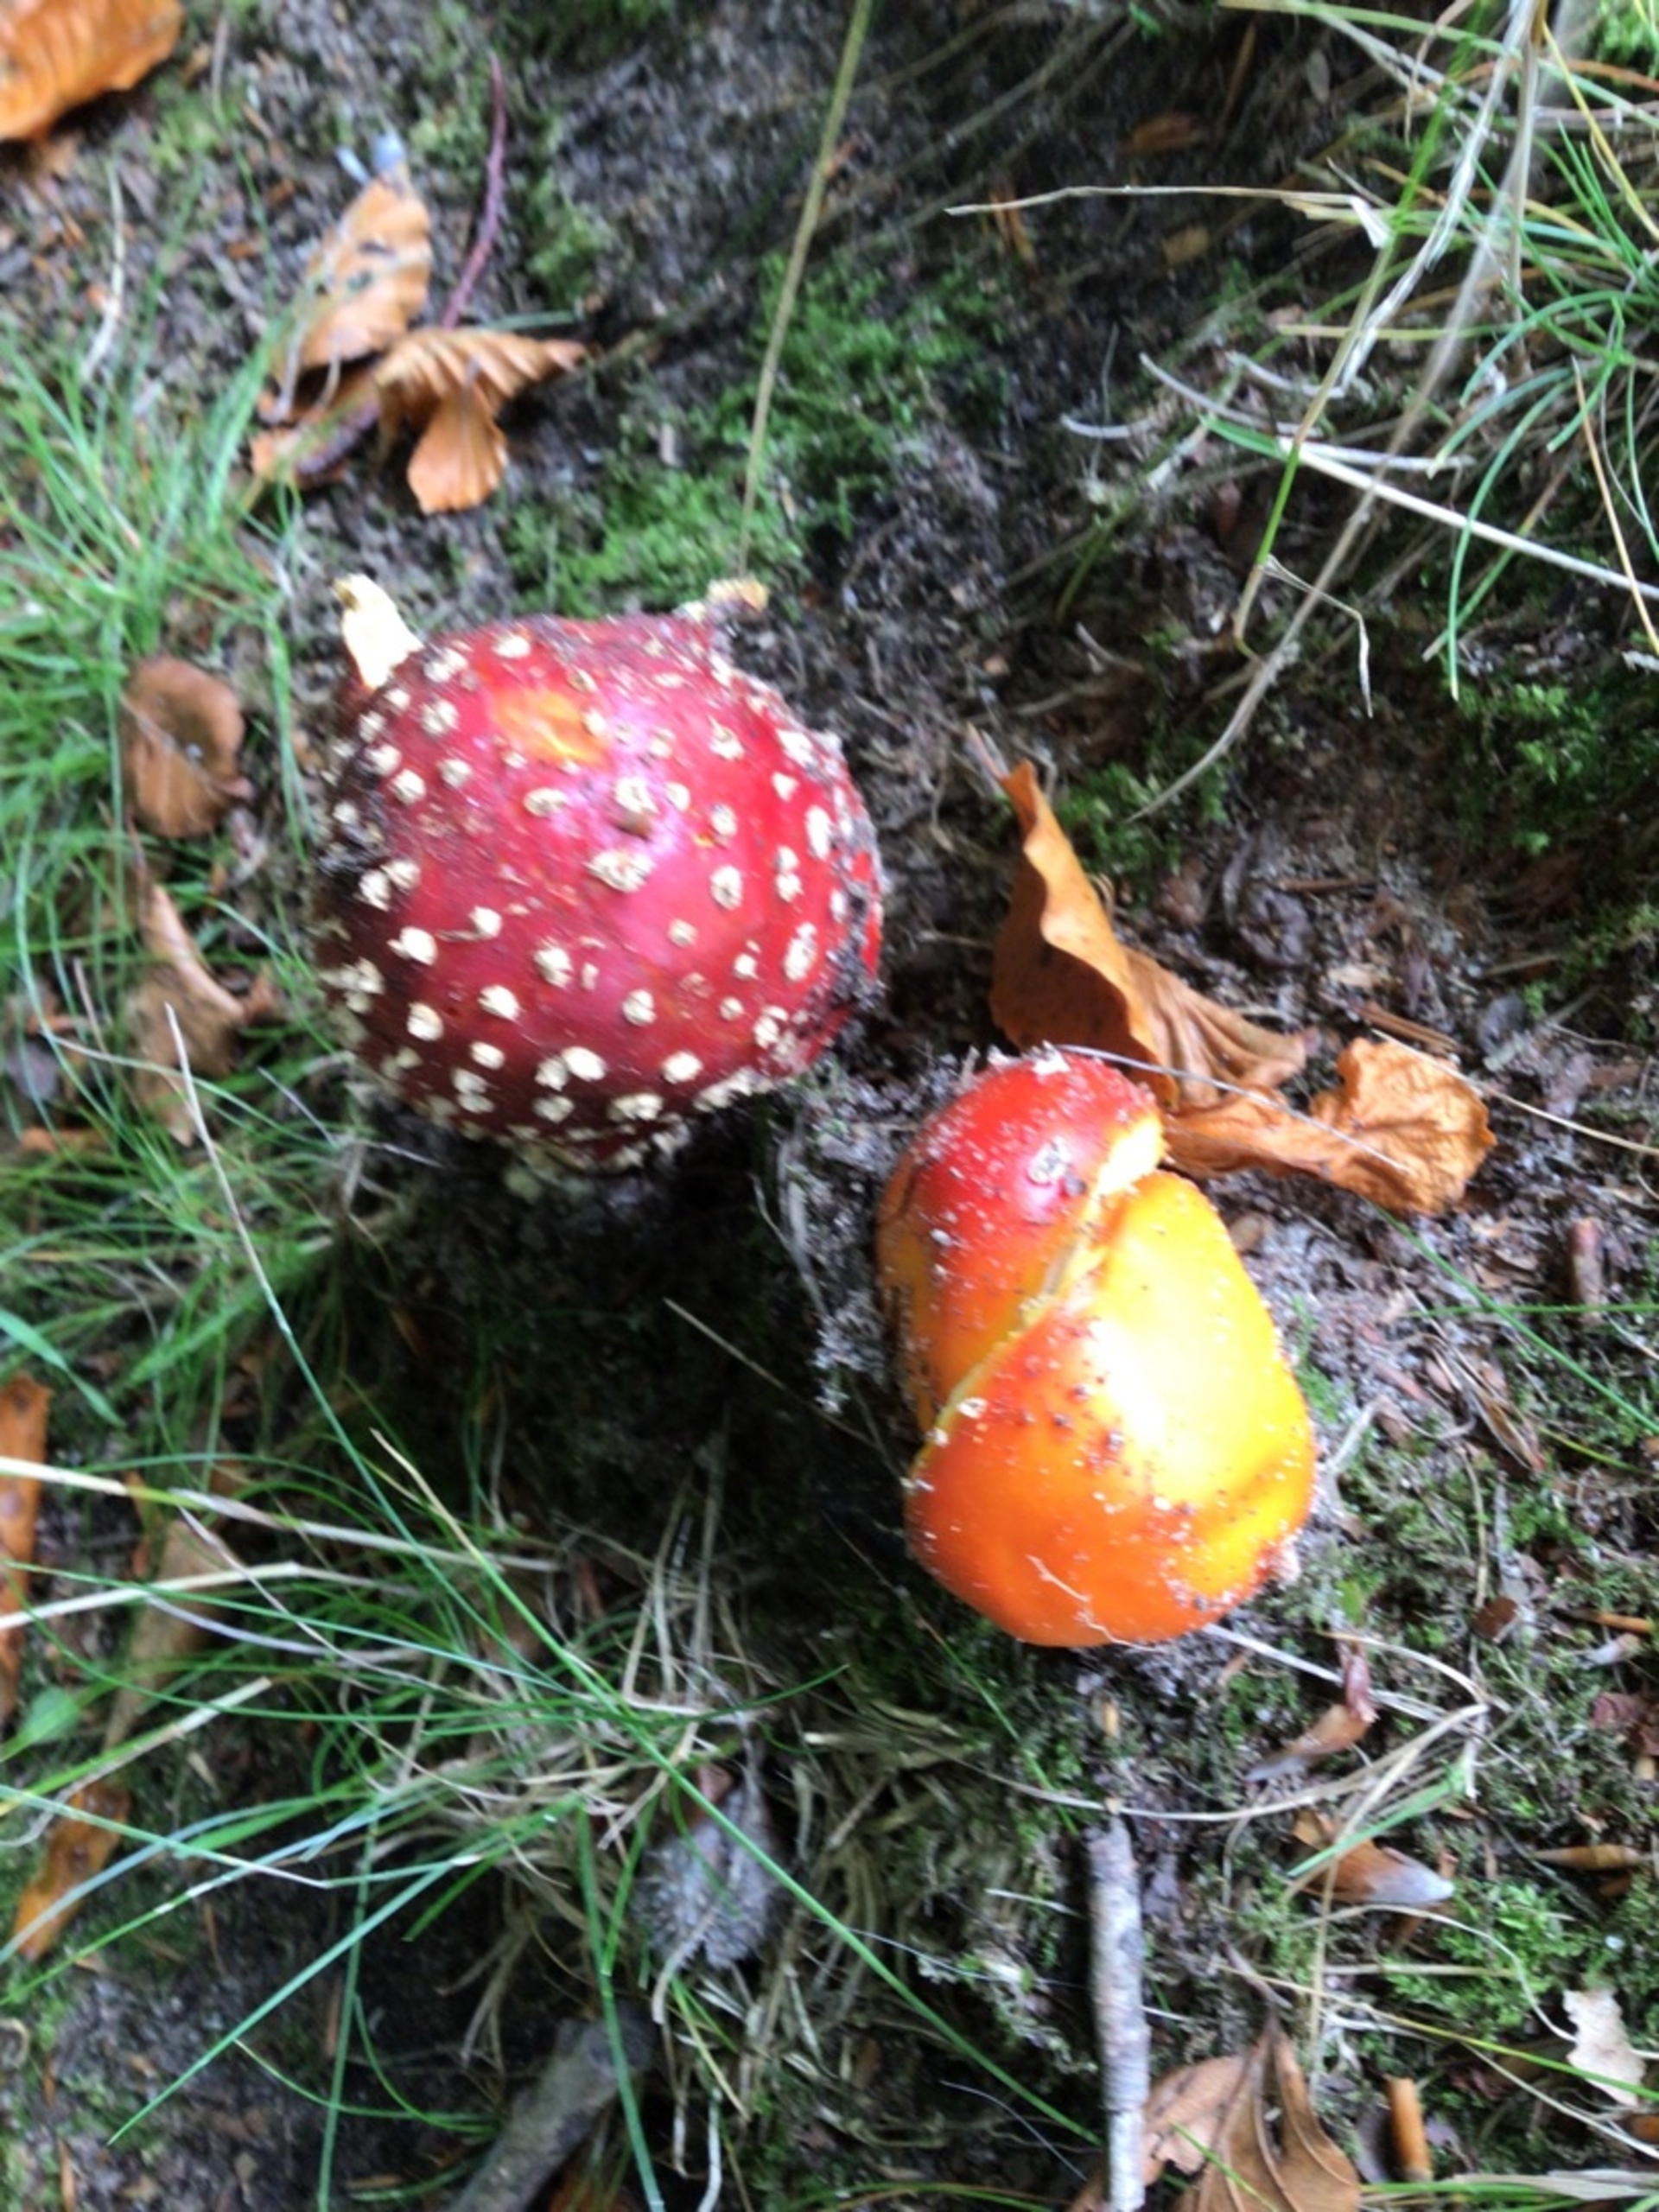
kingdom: Fungi
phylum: Basidiomycota
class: Agaricomycetes
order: Agaricales
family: Amanitaceae
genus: Amanita
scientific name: Amanita muscaria
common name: Rød fluesvamp
